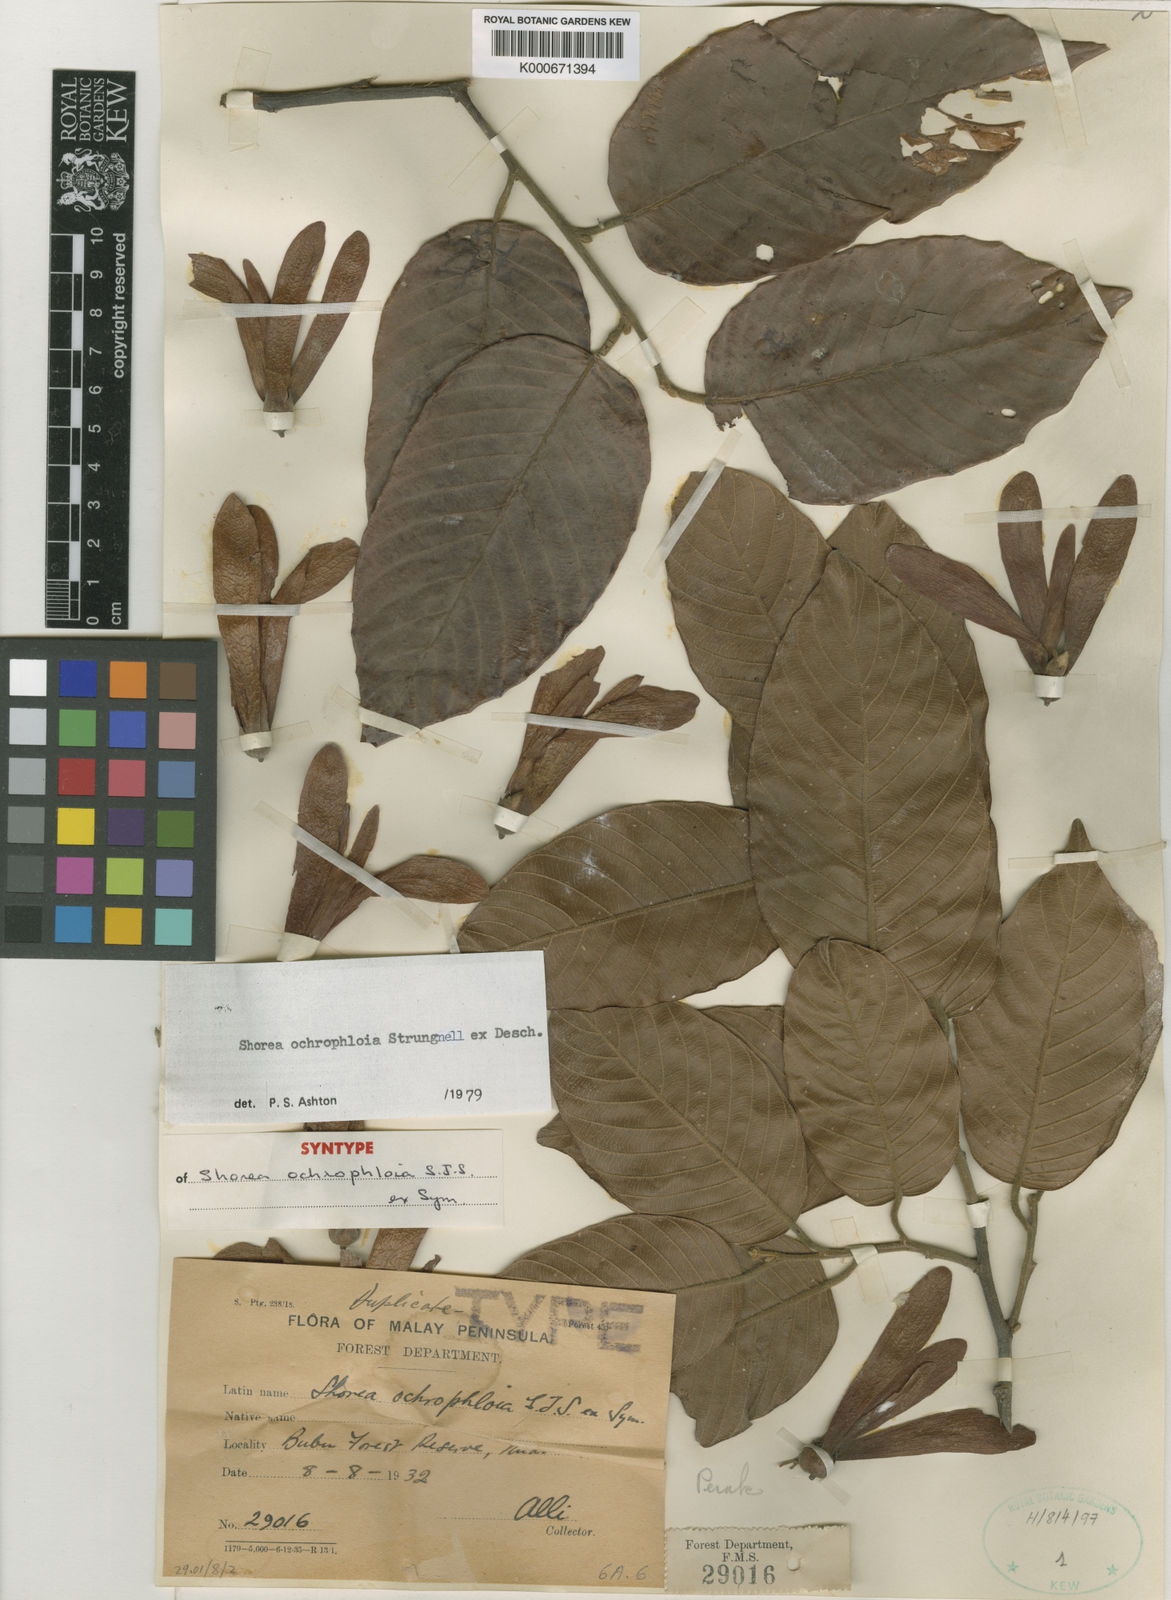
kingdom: Plantae
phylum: Tracheophyta
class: Magnoliopsida
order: Malvales
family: Dipterocarpaceae
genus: Shorea
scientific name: Shorea
